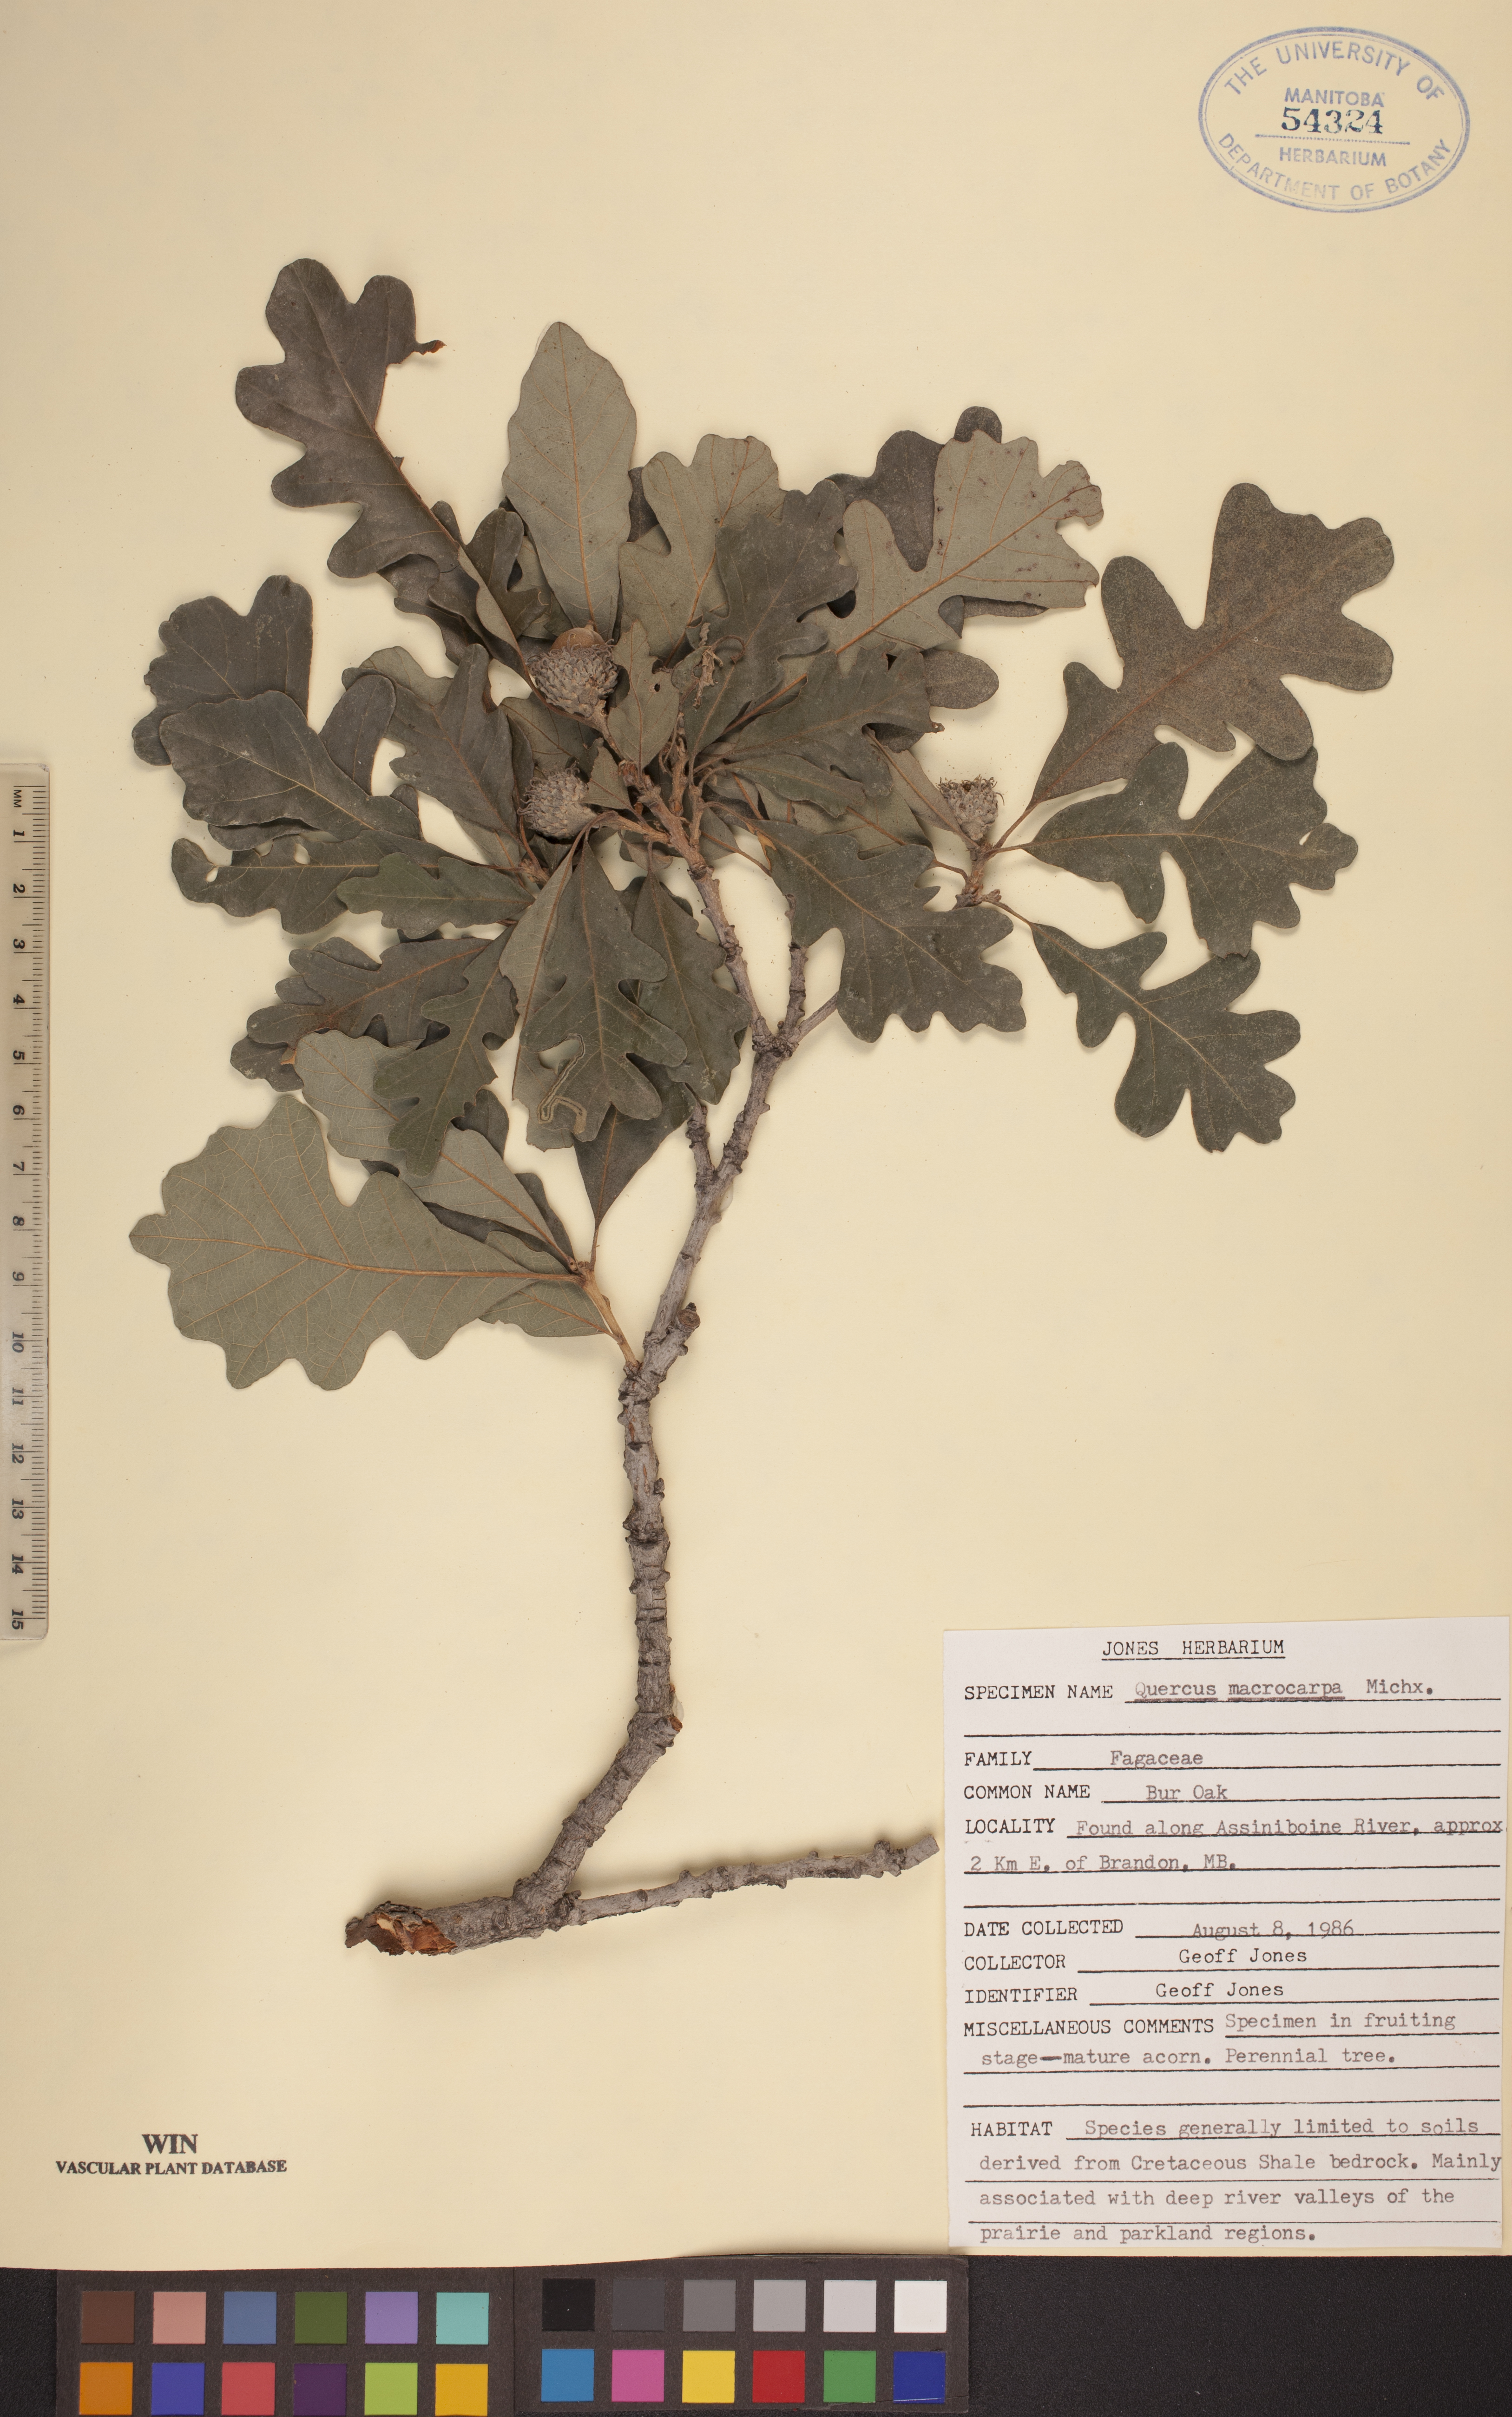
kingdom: Plantae
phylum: Tracheophyta
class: Magnoliopsida
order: Fagales
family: Fagaceae
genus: Quercus
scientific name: Quercus macrocarpa
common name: Bur oak
